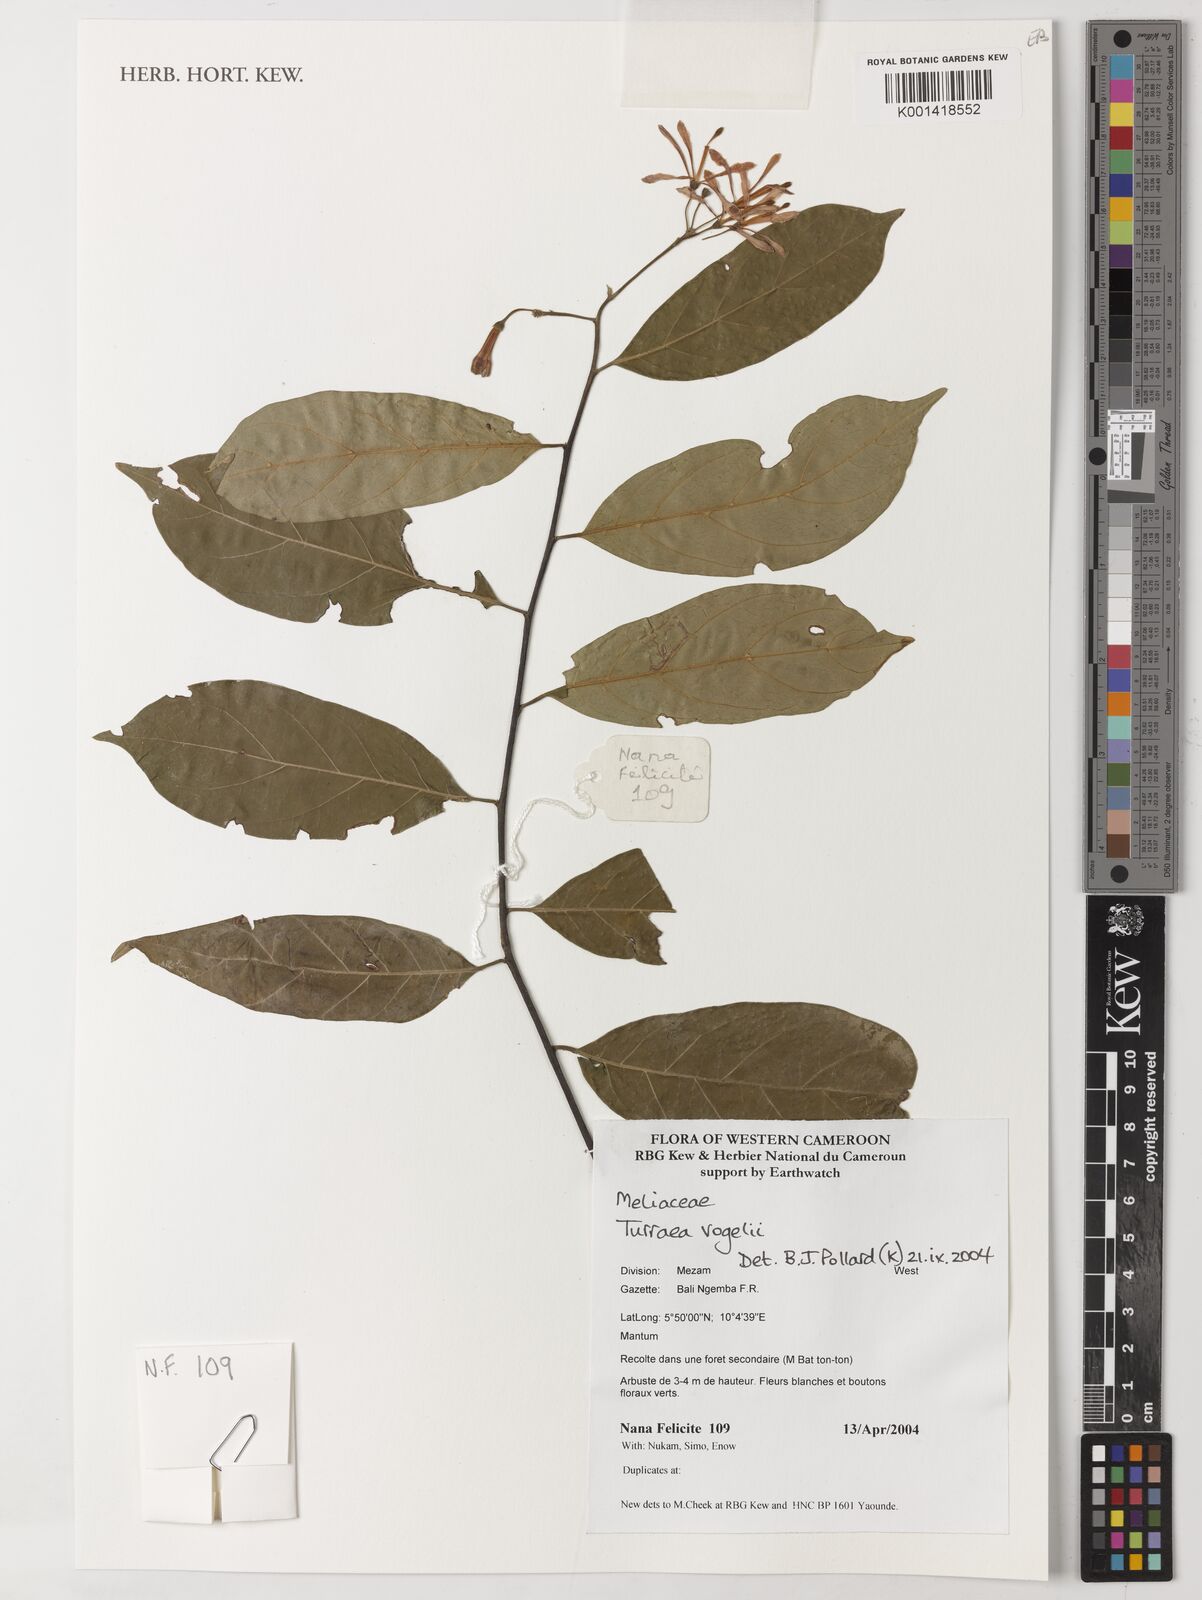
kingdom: Plantae
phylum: Tracheophyta
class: Magnoliopsida
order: Sapindales
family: Meliaceae
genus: Turraea
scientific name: Turraea vogelii
